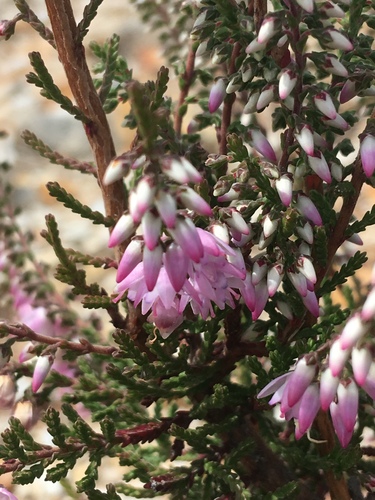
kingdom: Plantae
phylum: Tracheophyta
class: Magnoliopsida
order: Ericales
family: Ericaceae
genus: Calluna
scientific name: Calluna vulgaris
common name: Heather
